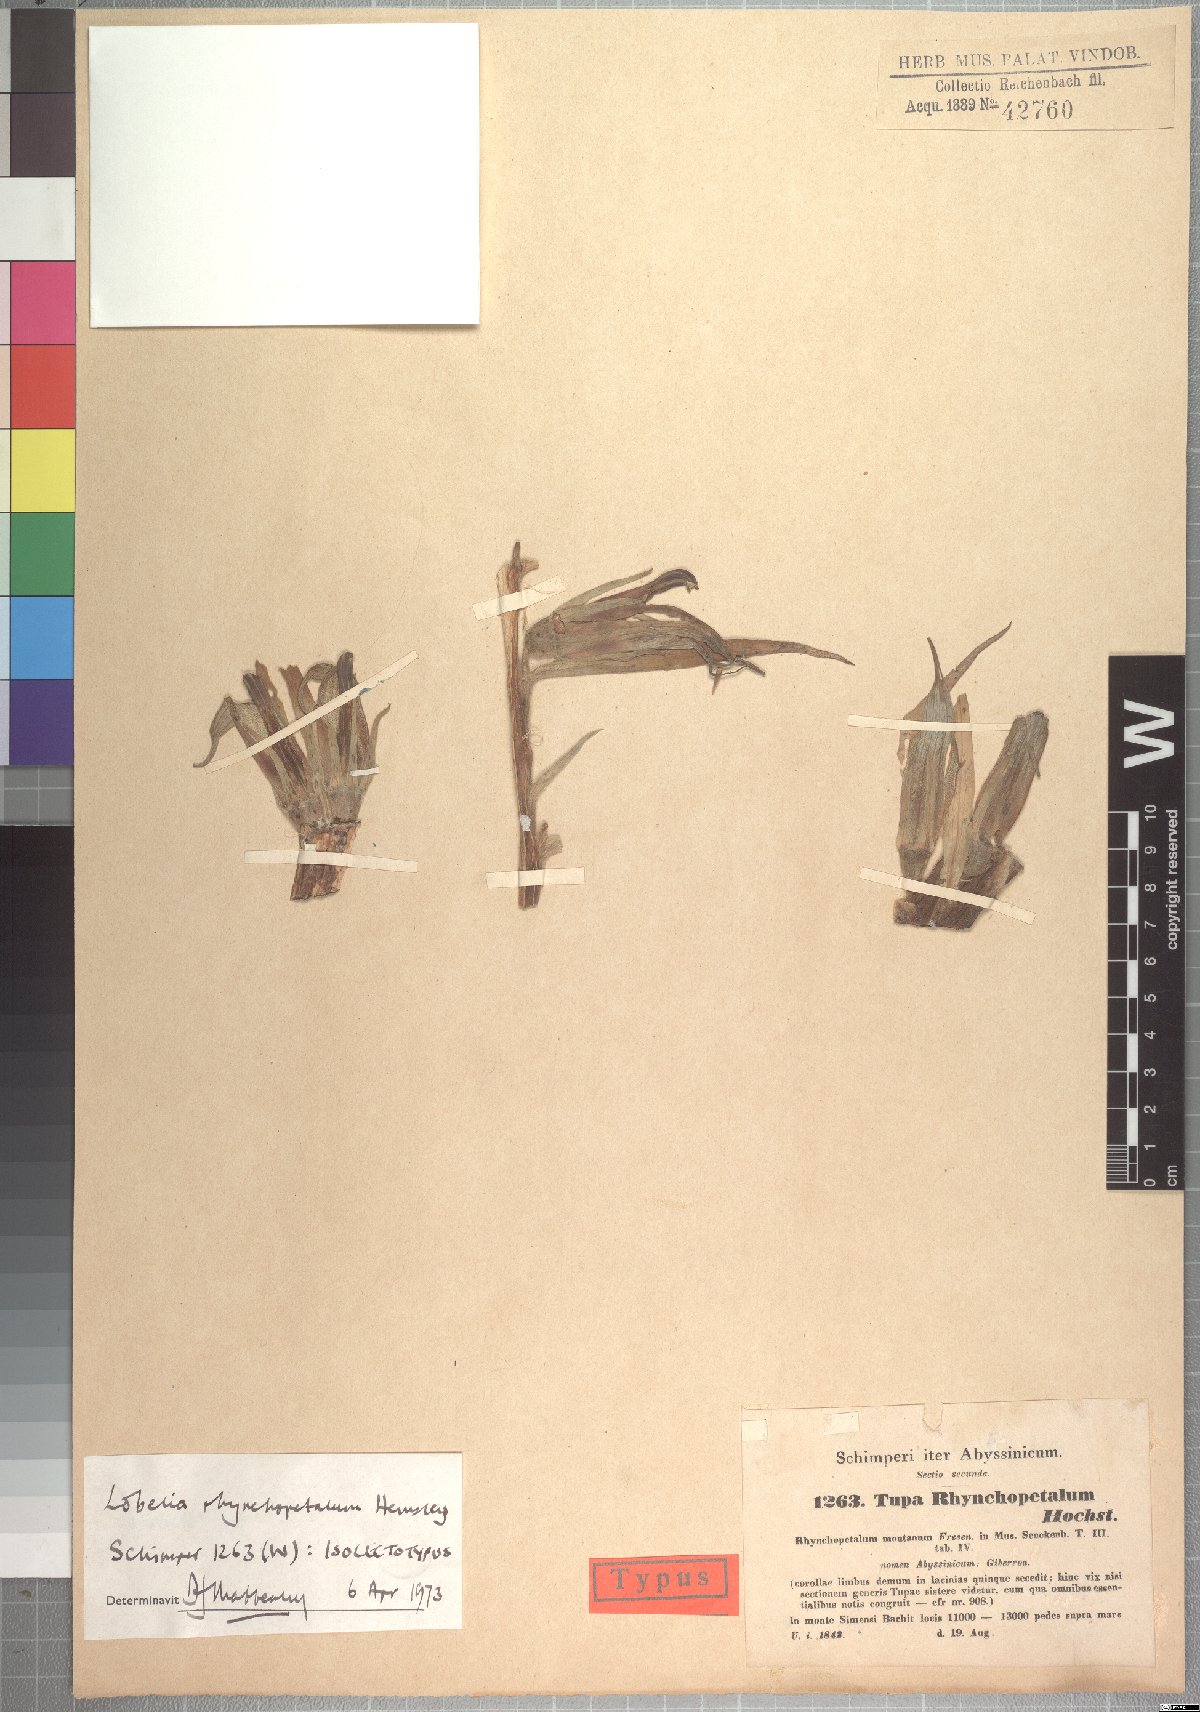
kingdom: Plantae
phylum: Tracheophyta
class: Magnoliopsida
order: Asterales
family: Campanulaceae
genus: Lobelia
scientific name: Lobelia rhynchopetalum
